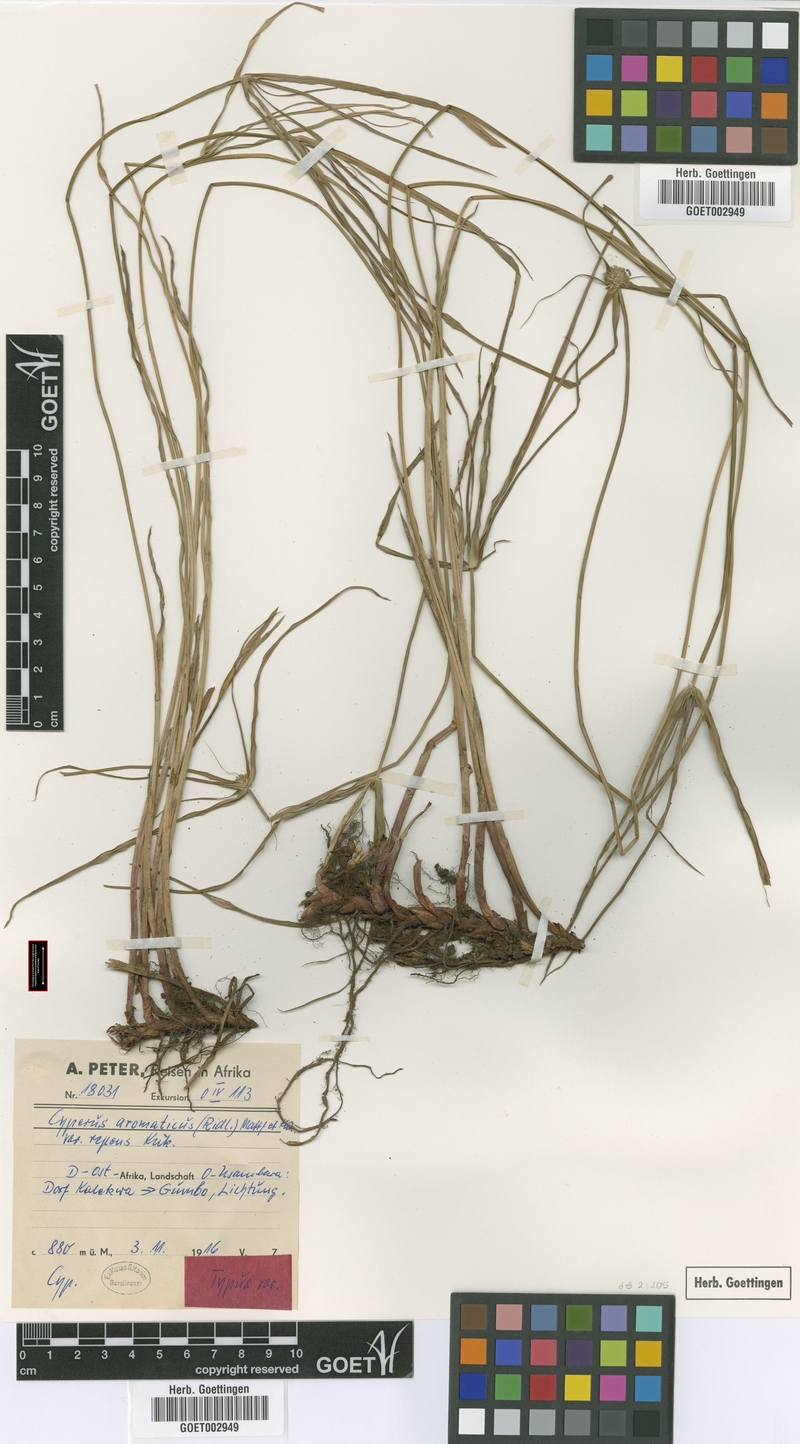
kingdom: Plantae
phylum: Tracheophyta
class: Liliopsida
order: Poales
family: Cyperaceae
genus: Cyperus
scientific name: Cyperus aromaticus
